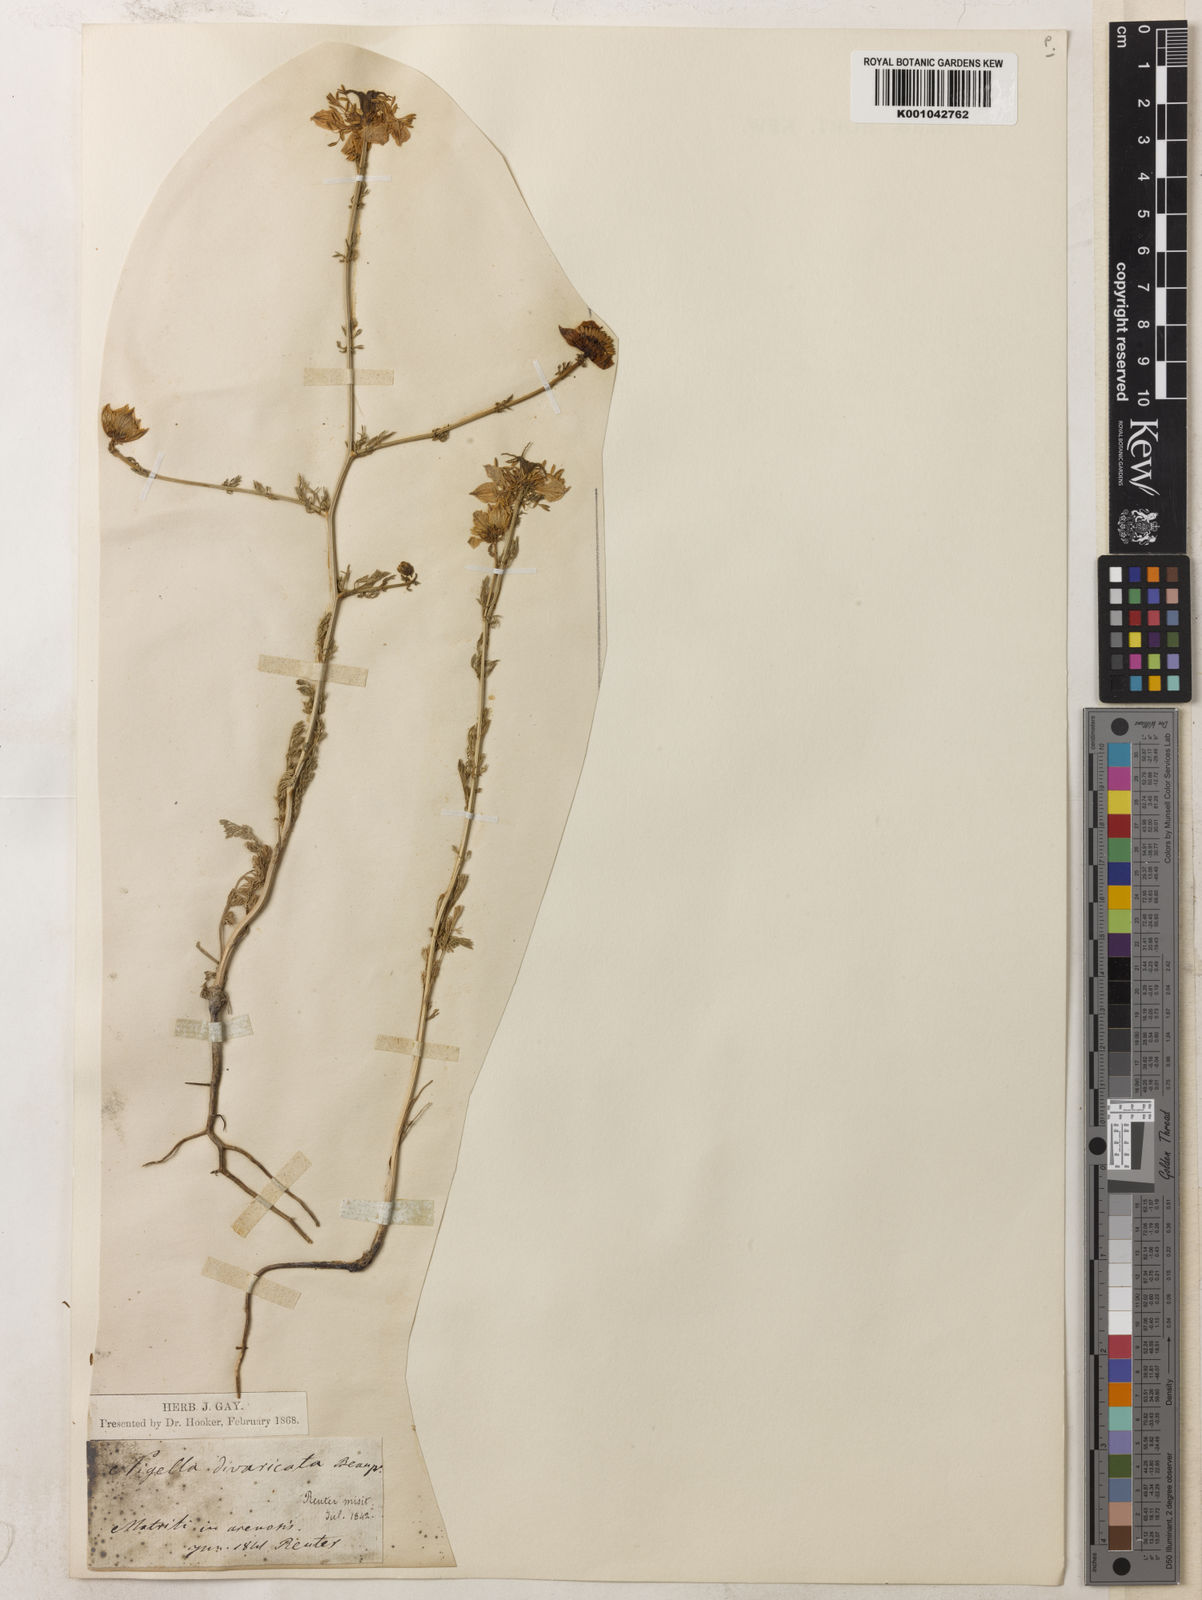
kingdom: Plantae
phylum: Tracheophyta
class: Magnoliopsida
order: Ranunculales
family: Ranunculaceae
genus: Nigella
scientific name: Nigella hispanica
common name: Fennel-flower
